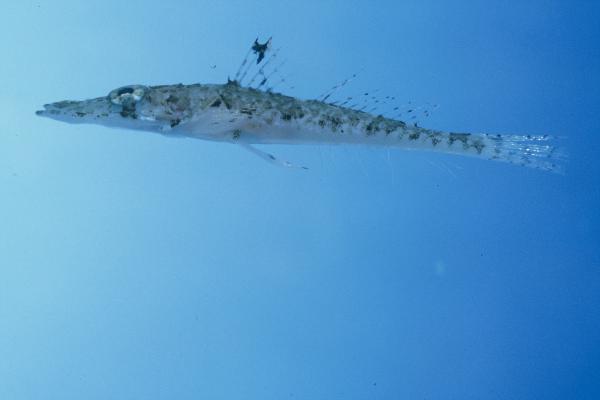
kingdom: Animalia
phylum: Chordata
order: Scorpaeniformes
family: Platycephalidae
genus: Papilloculiceps
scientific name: Papilloculiceps longiceps
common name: Tentacled flathead
